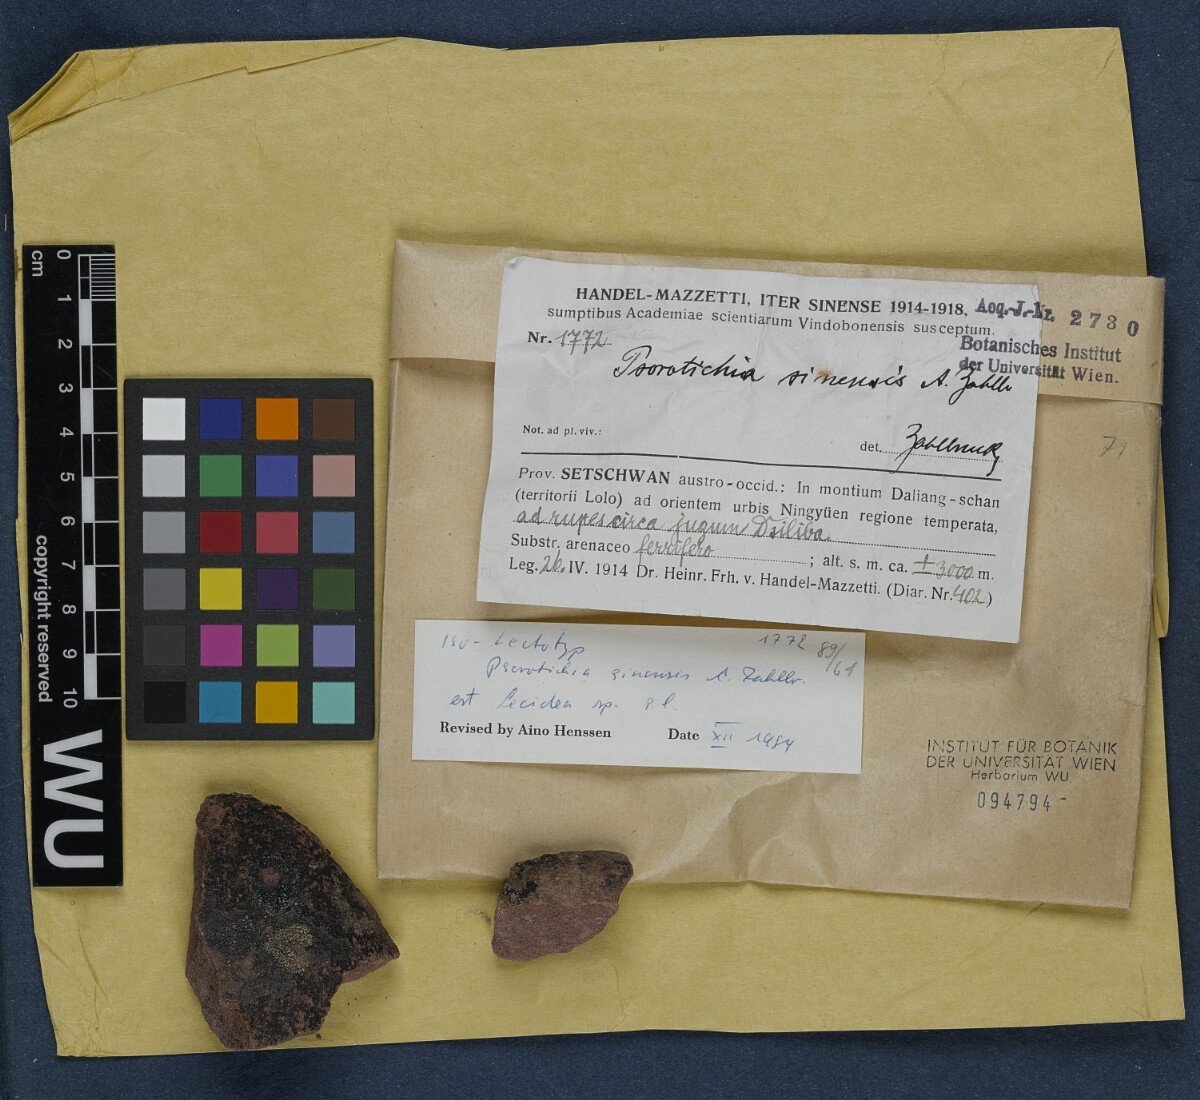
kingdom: Fungi
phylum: Ascomycota
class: Lichinomycetes
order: Lichinales
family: Lichinaceae
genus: Psorotichia
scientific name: Psorotichia sinaiensis
